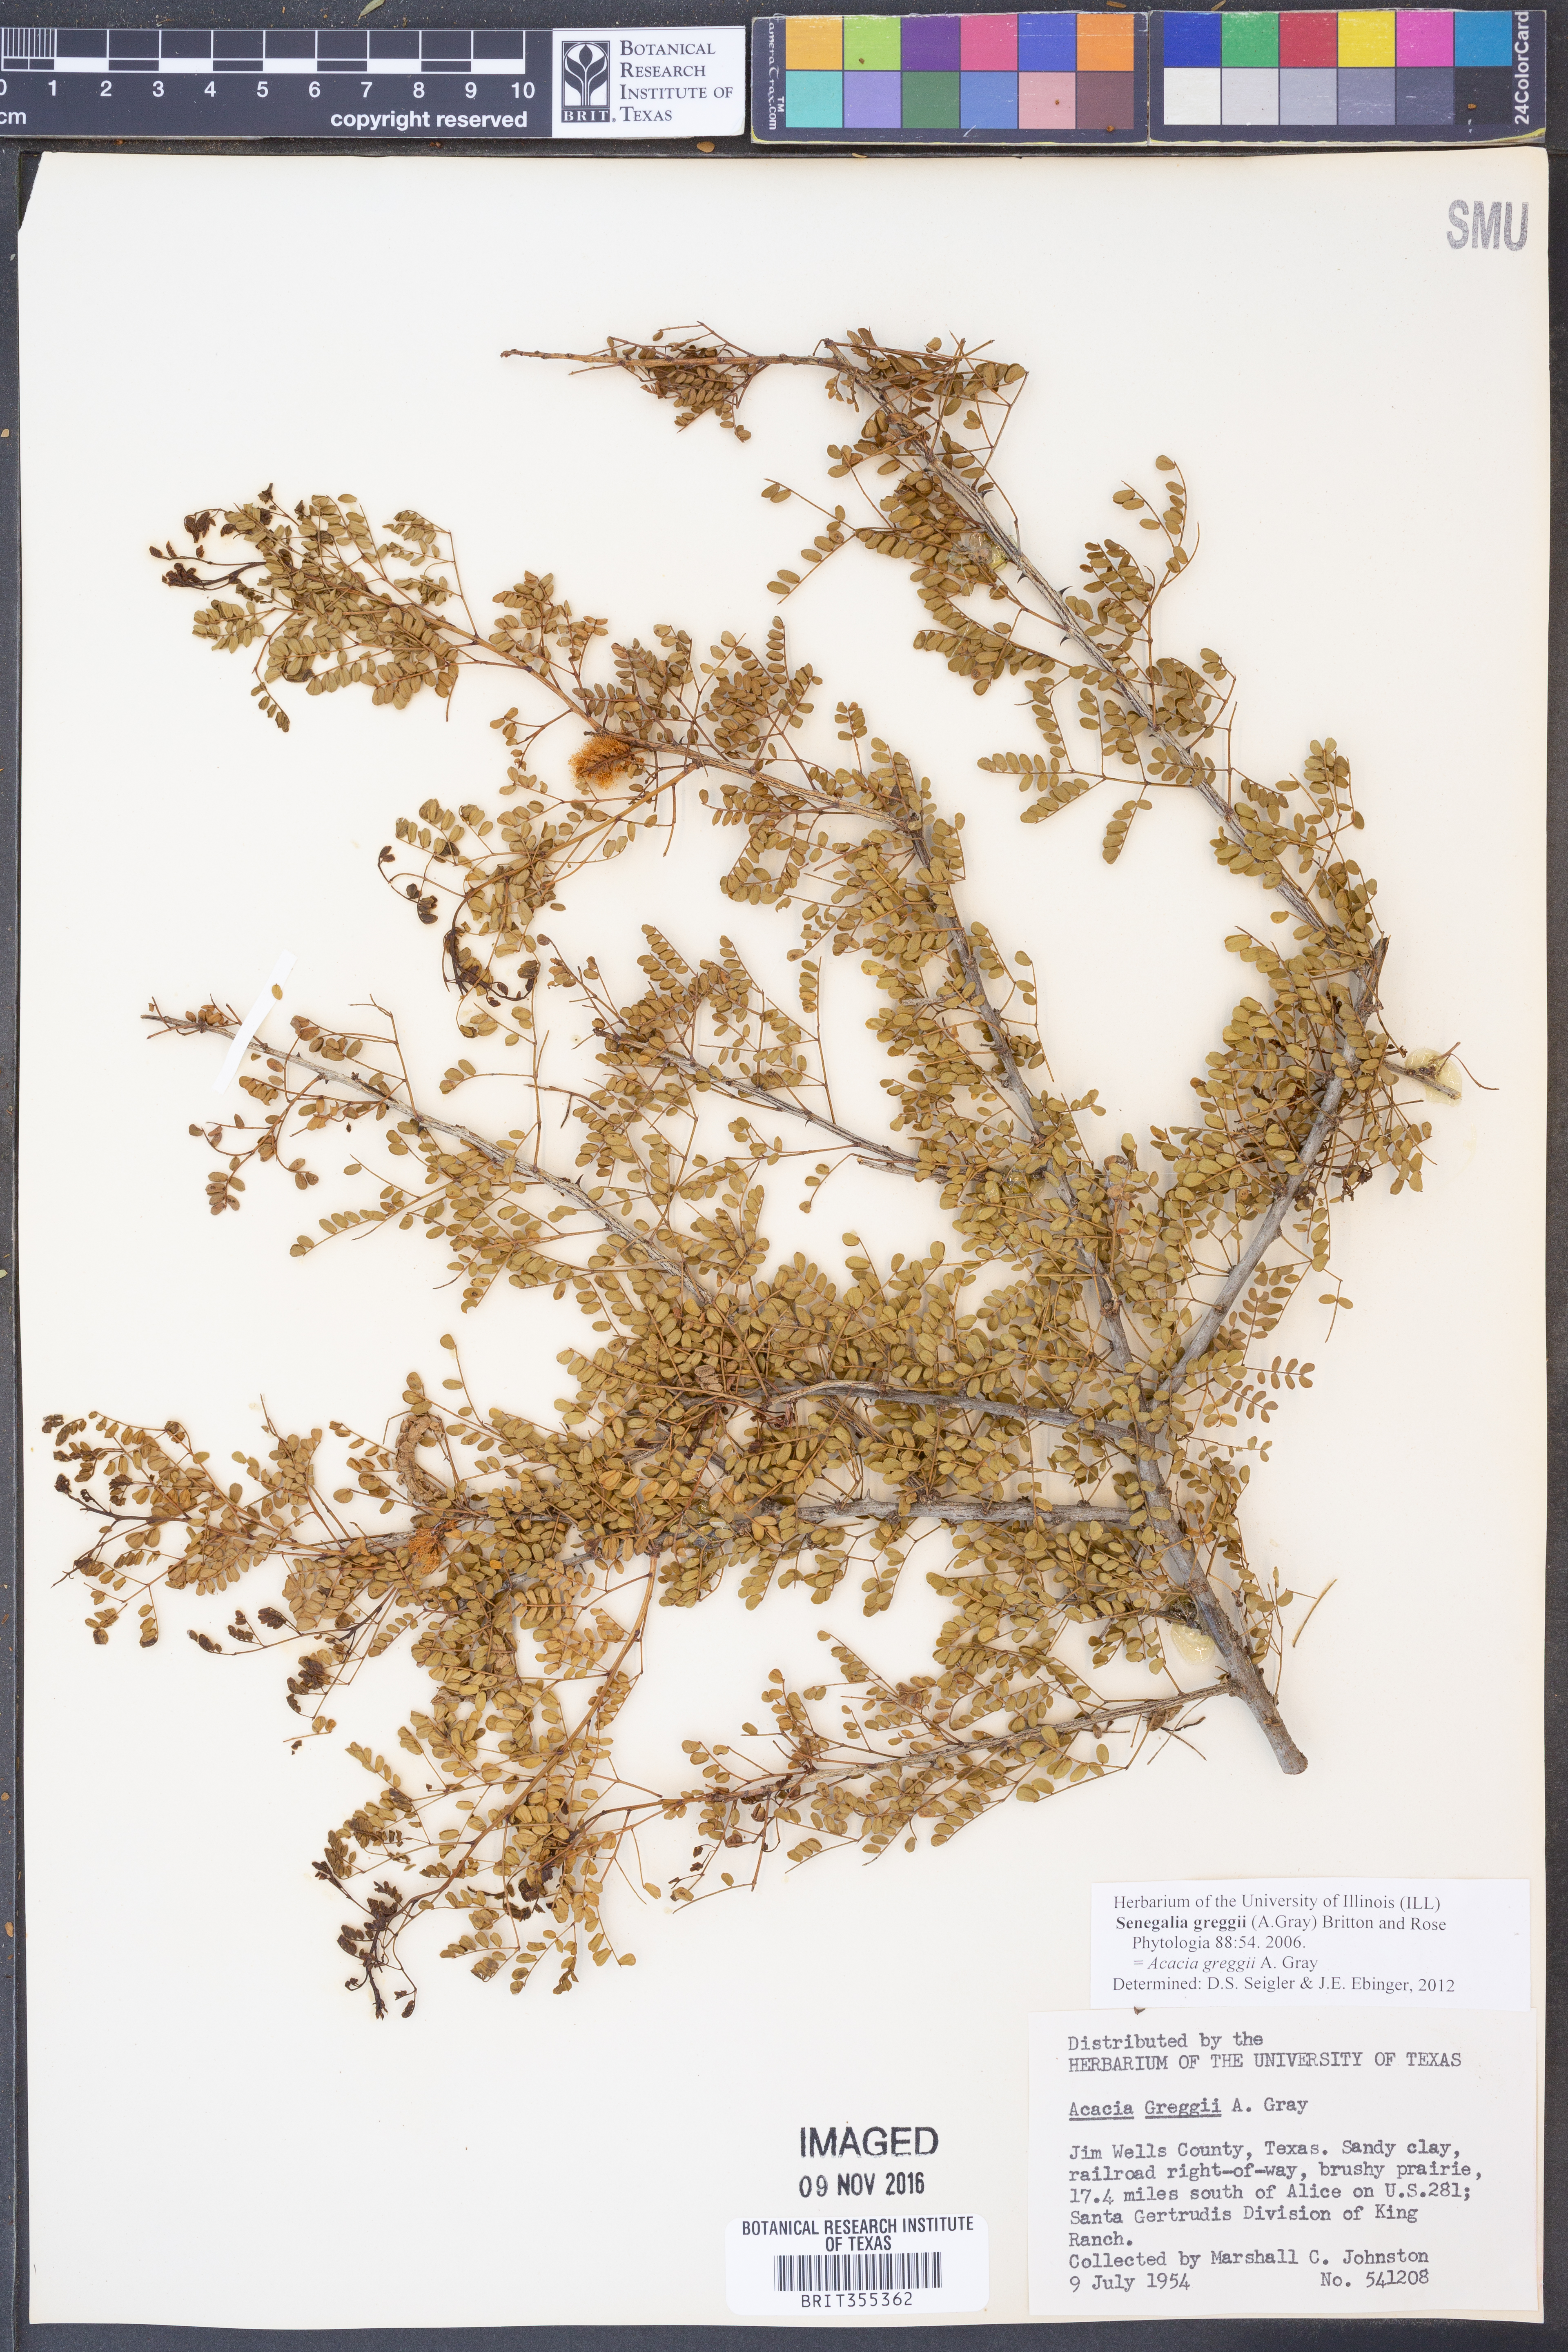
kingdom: Plantae
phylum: Tracheophyta
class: Magnoliopsida
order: Fabales
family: Fabaceae
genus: Senegalia
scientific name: Senegalia greggii
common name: Texas-mimosa
